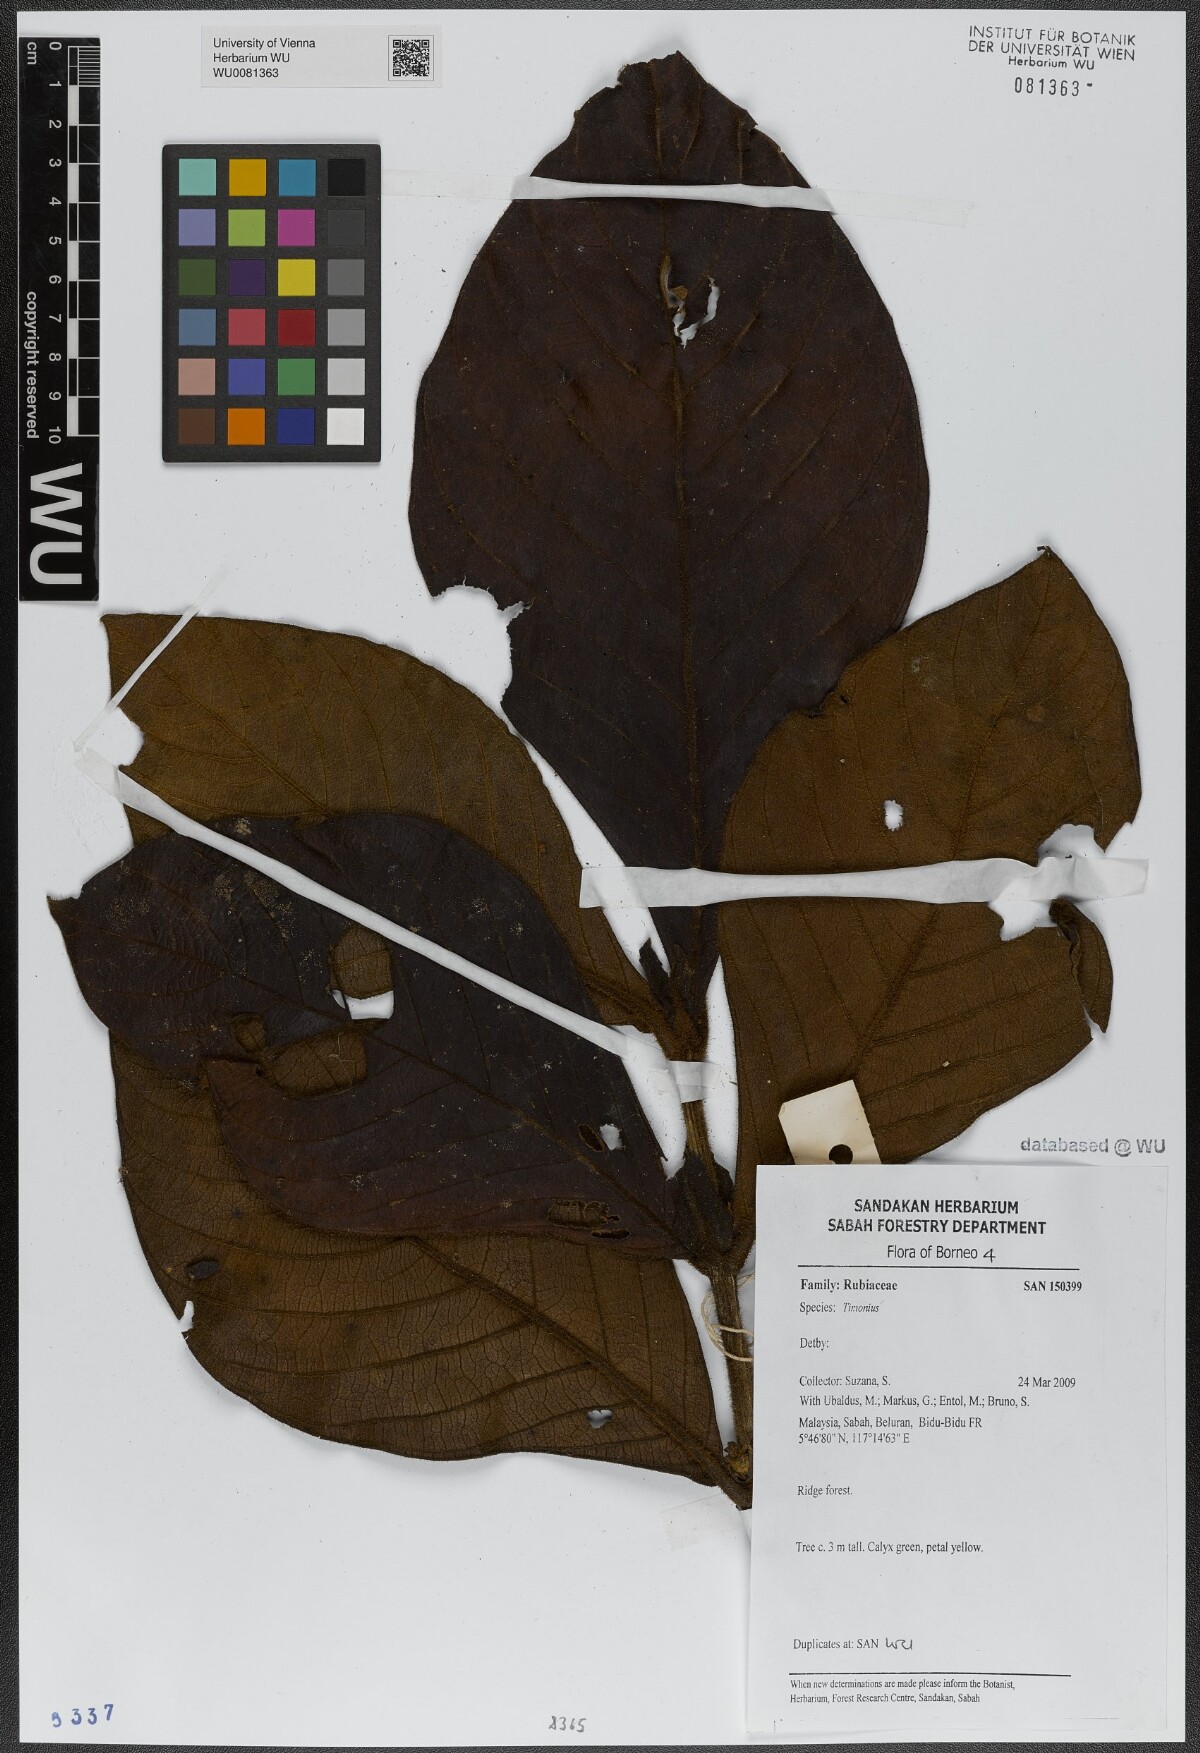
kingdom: Plantae
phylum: Tracheophyta
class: Magnoliopsida
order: Gentianales
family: Rubiaceae
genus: Timonius
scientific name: Timonius
